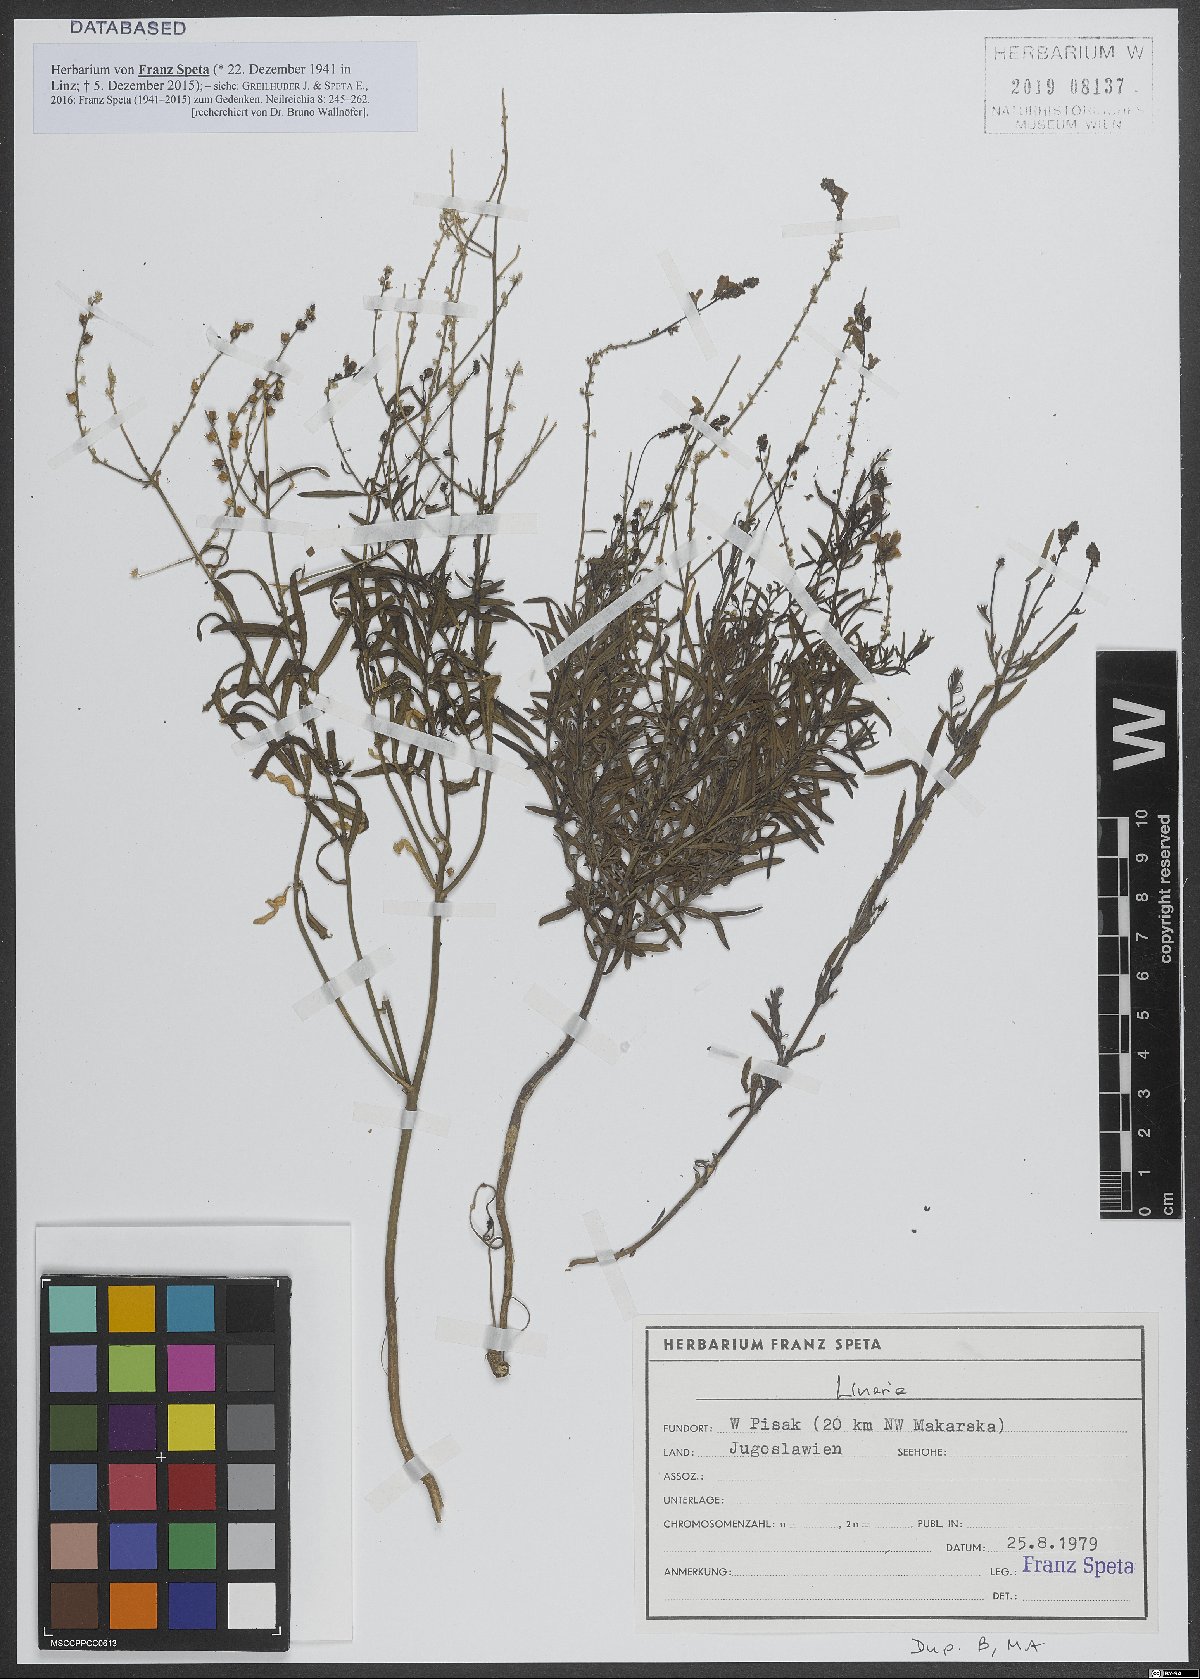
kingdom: Plantae
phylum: Tracheophyta
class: Magnoliopsida
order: Lamiales
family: Plantaginaceae
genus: Linaria
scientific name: Linaria
